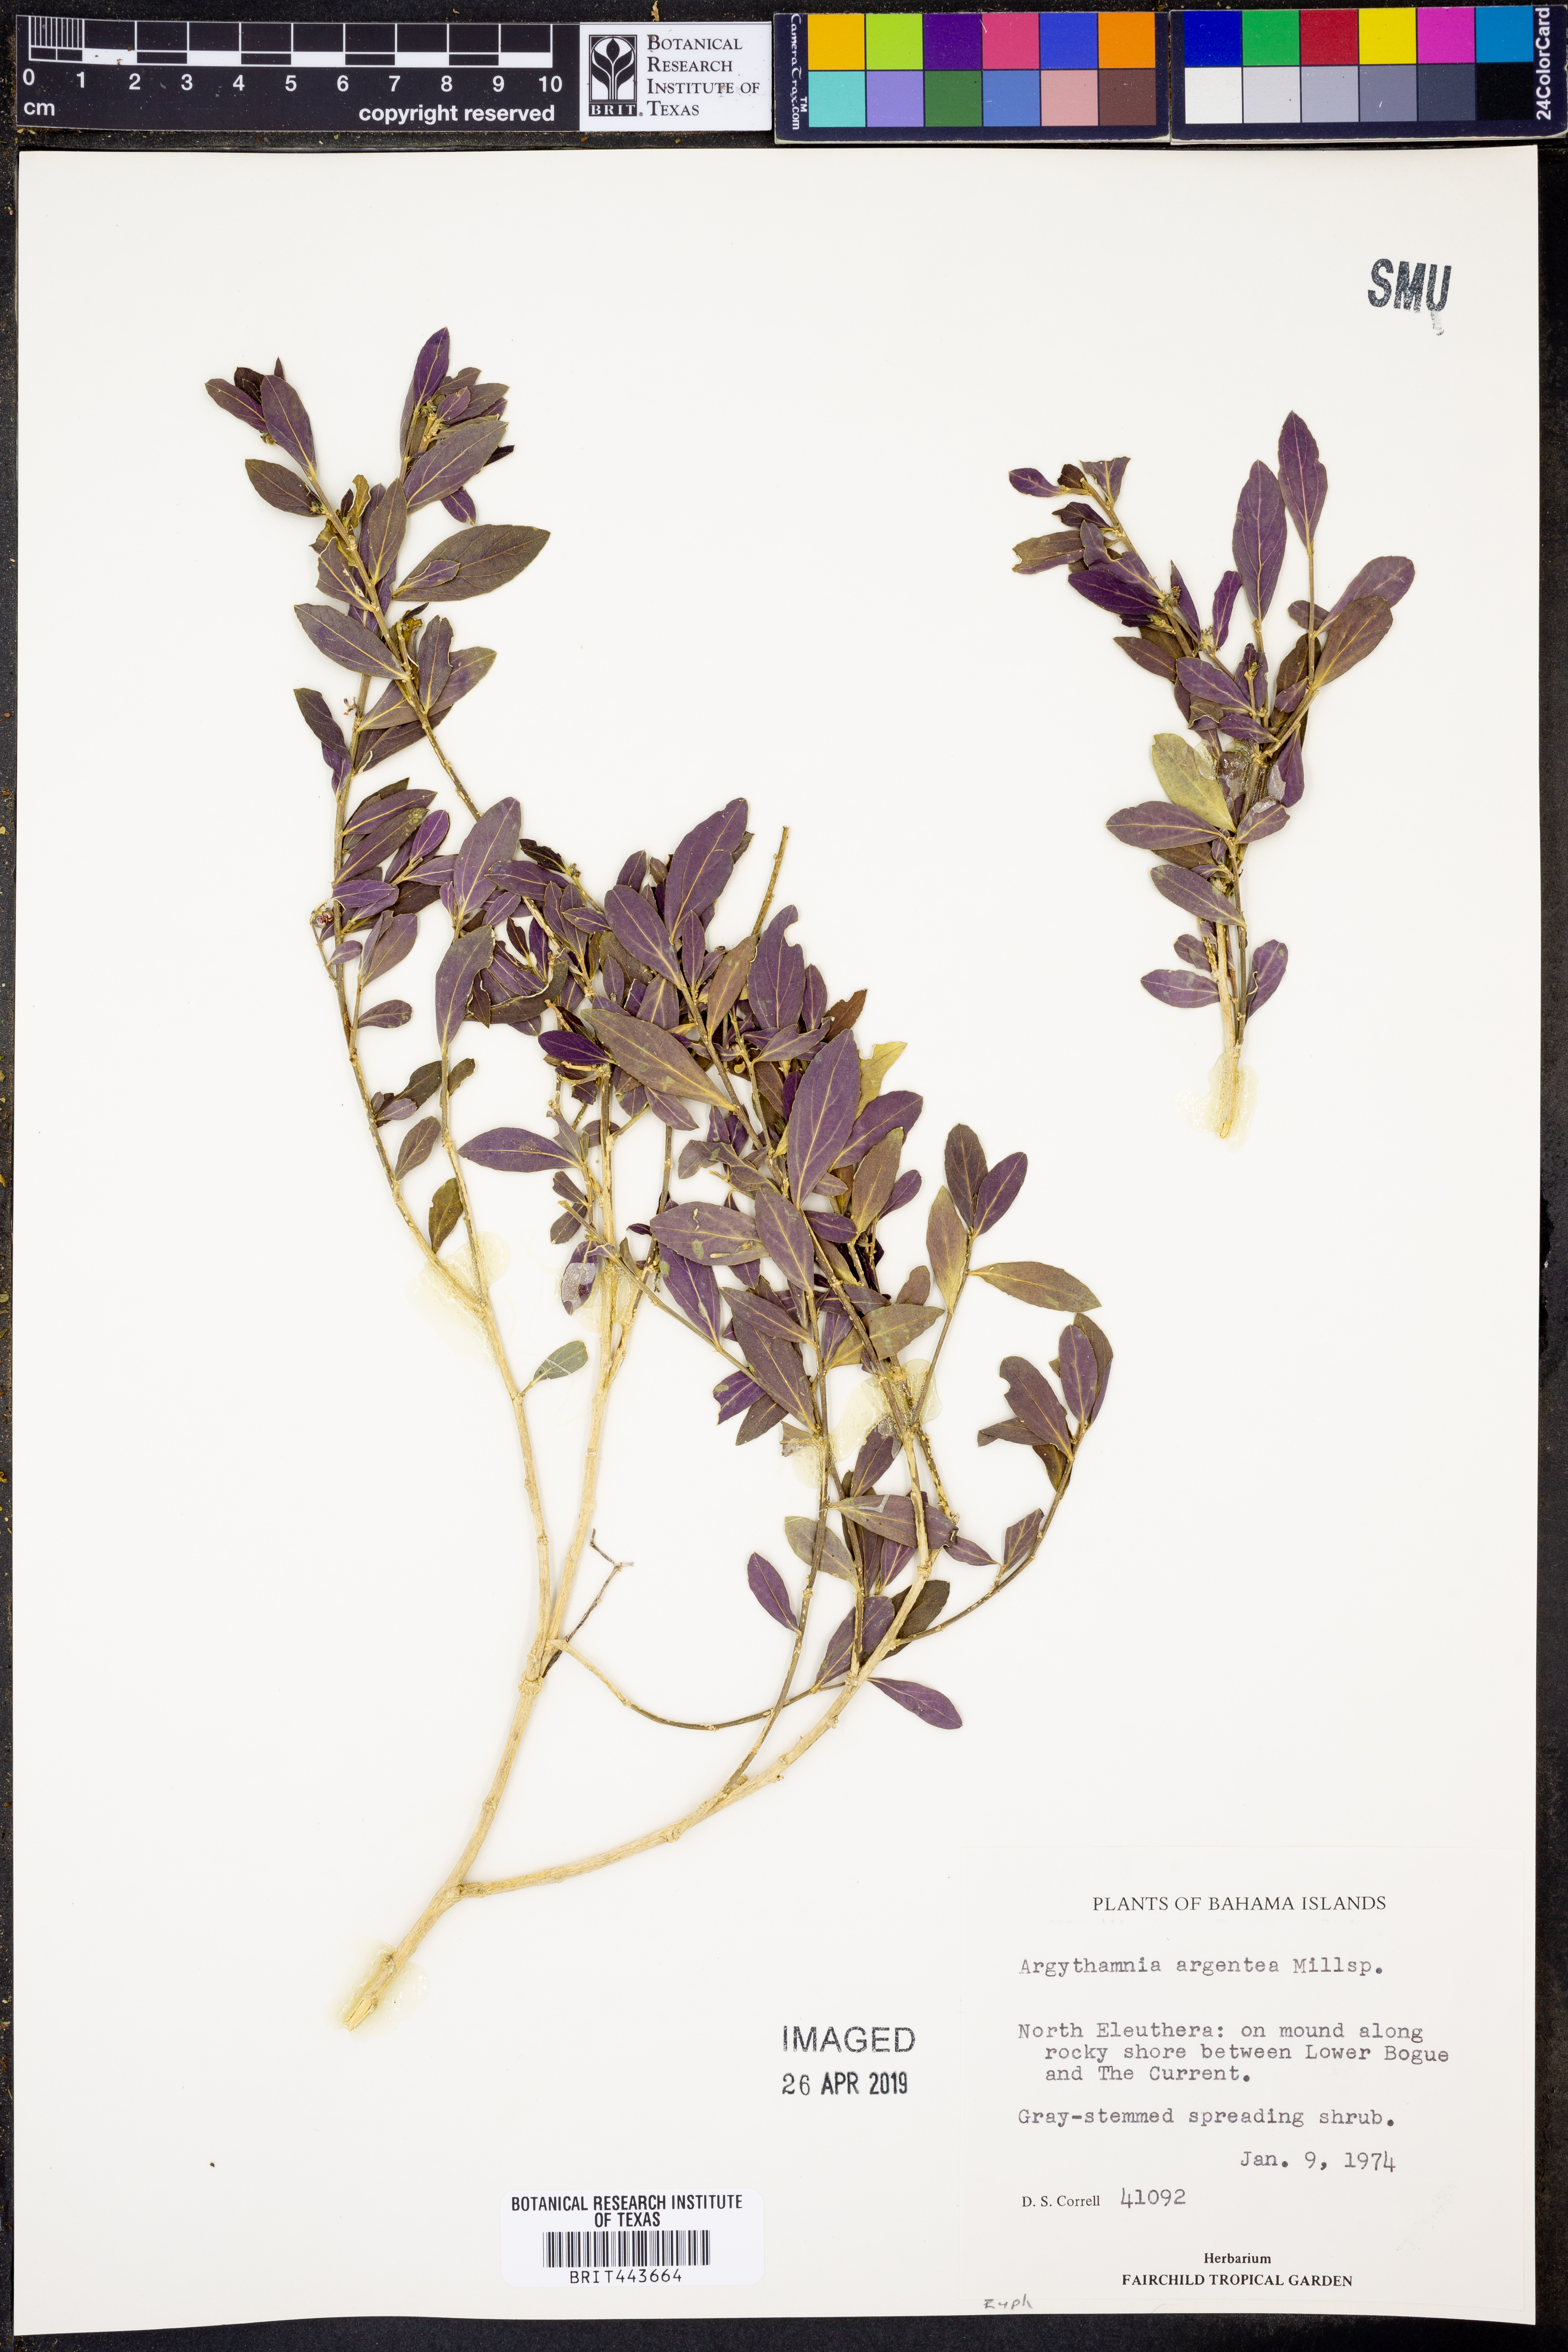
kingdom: Plantae
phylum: Tracheophyta
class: Magnoliopsida
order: Malpighiales
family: Euphorbiaceae
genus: Argythamnia
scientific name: Argythamnia argentea
